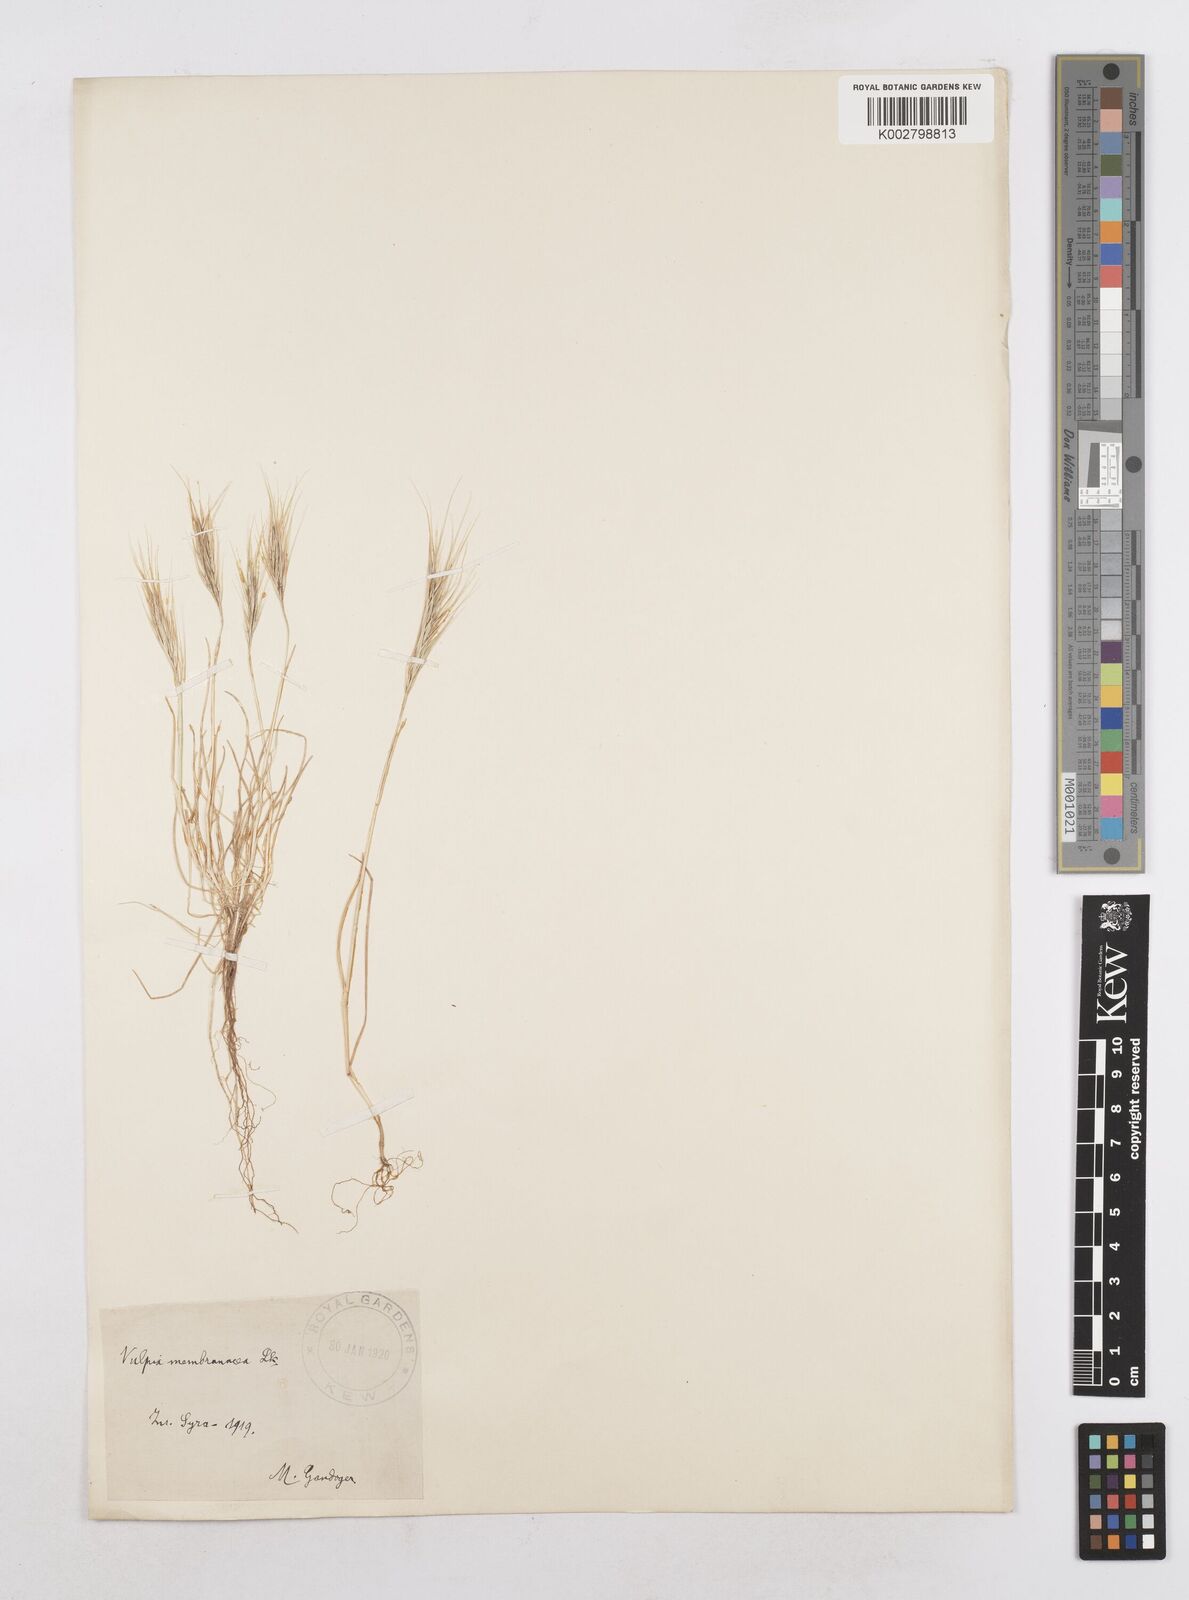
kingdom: Plantae
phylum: Tracheophyta
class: Liliopsida
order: Poales
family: Poaceae
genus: Festuca
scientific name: Festuca fasciculata
